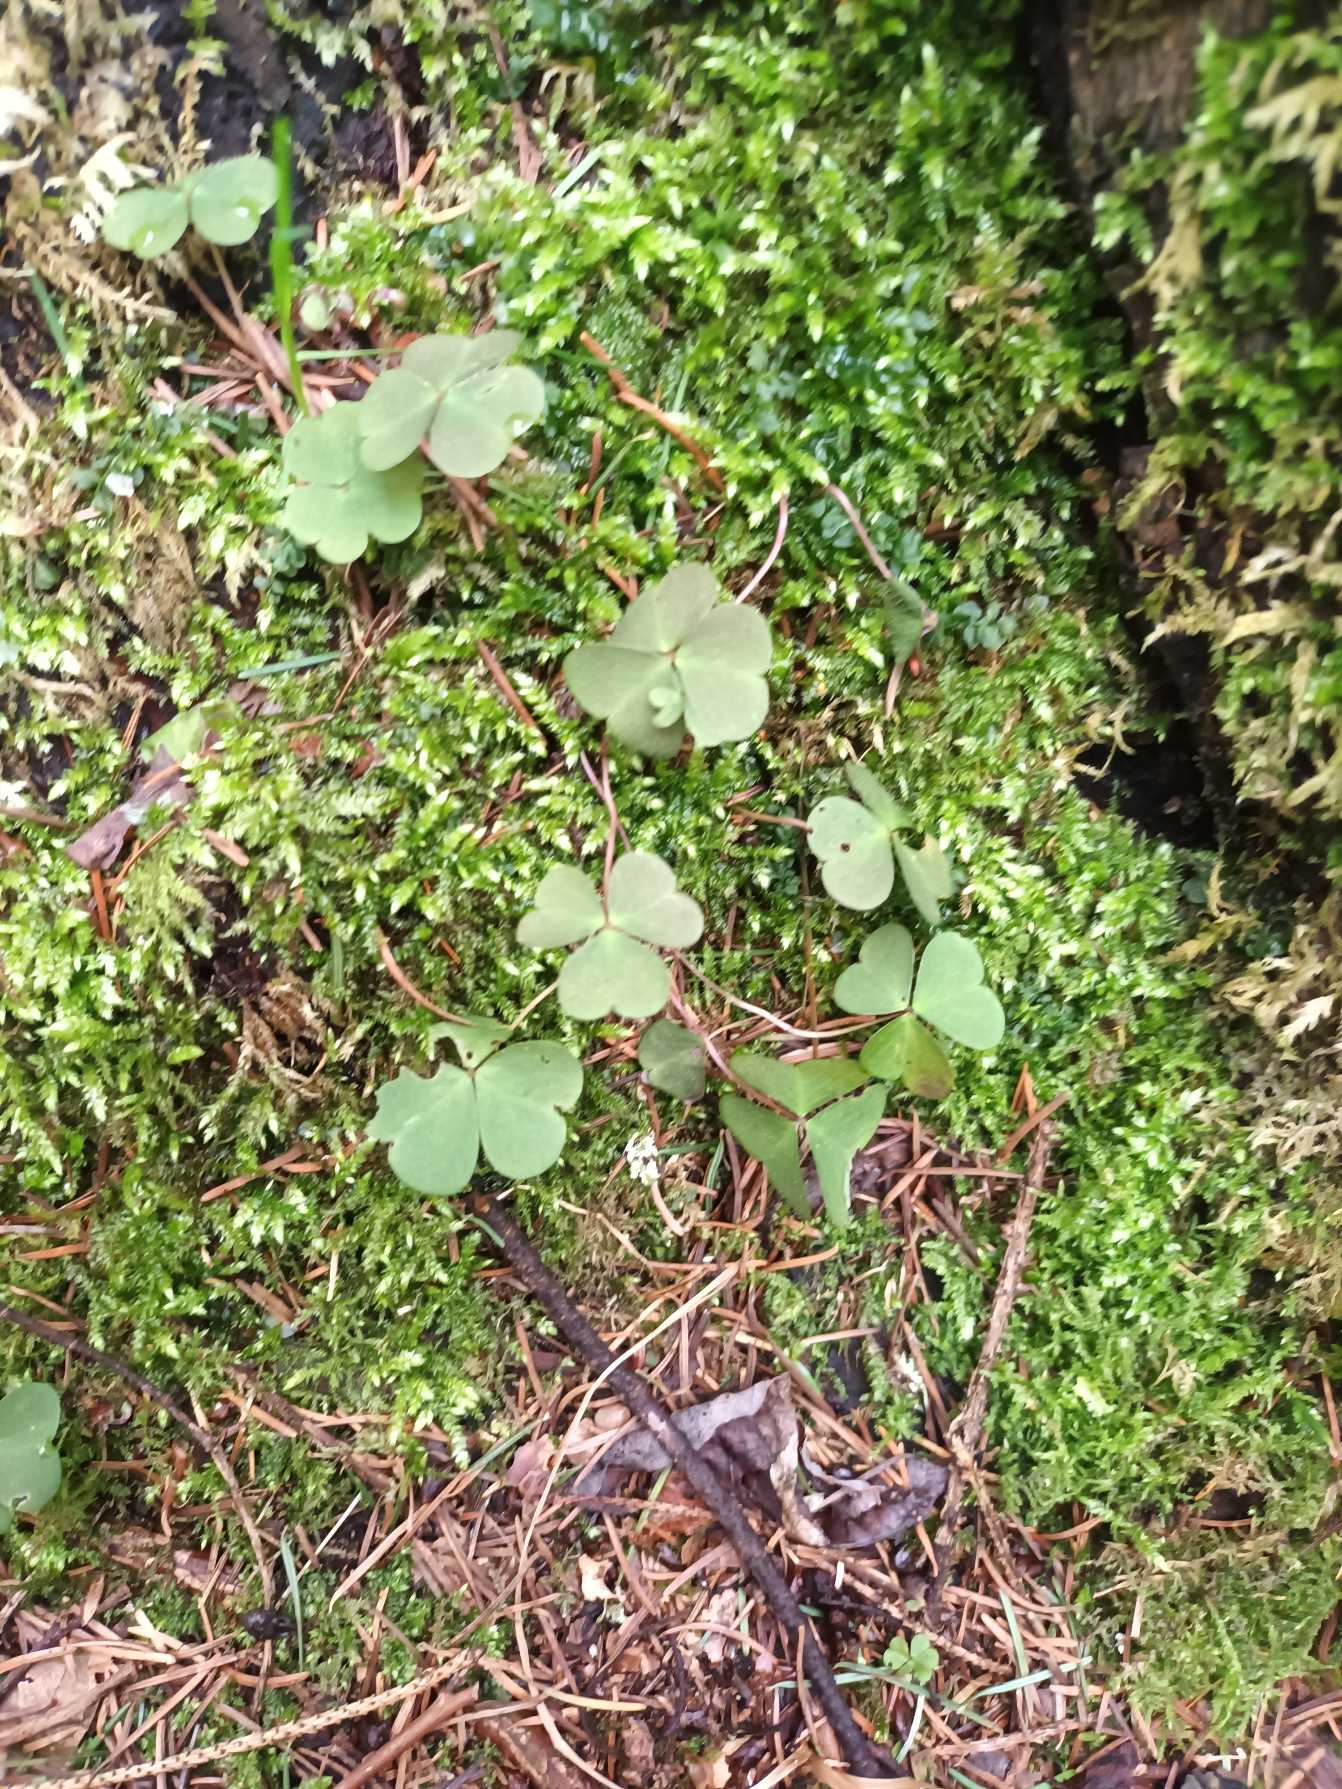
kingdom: Plantae
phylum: Tracheophyta
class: Magnoliopsida
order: Oxalidales
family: Oxalidaceae
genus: Oxalis
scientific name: Oxalis acetosella
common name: Skovsyre
